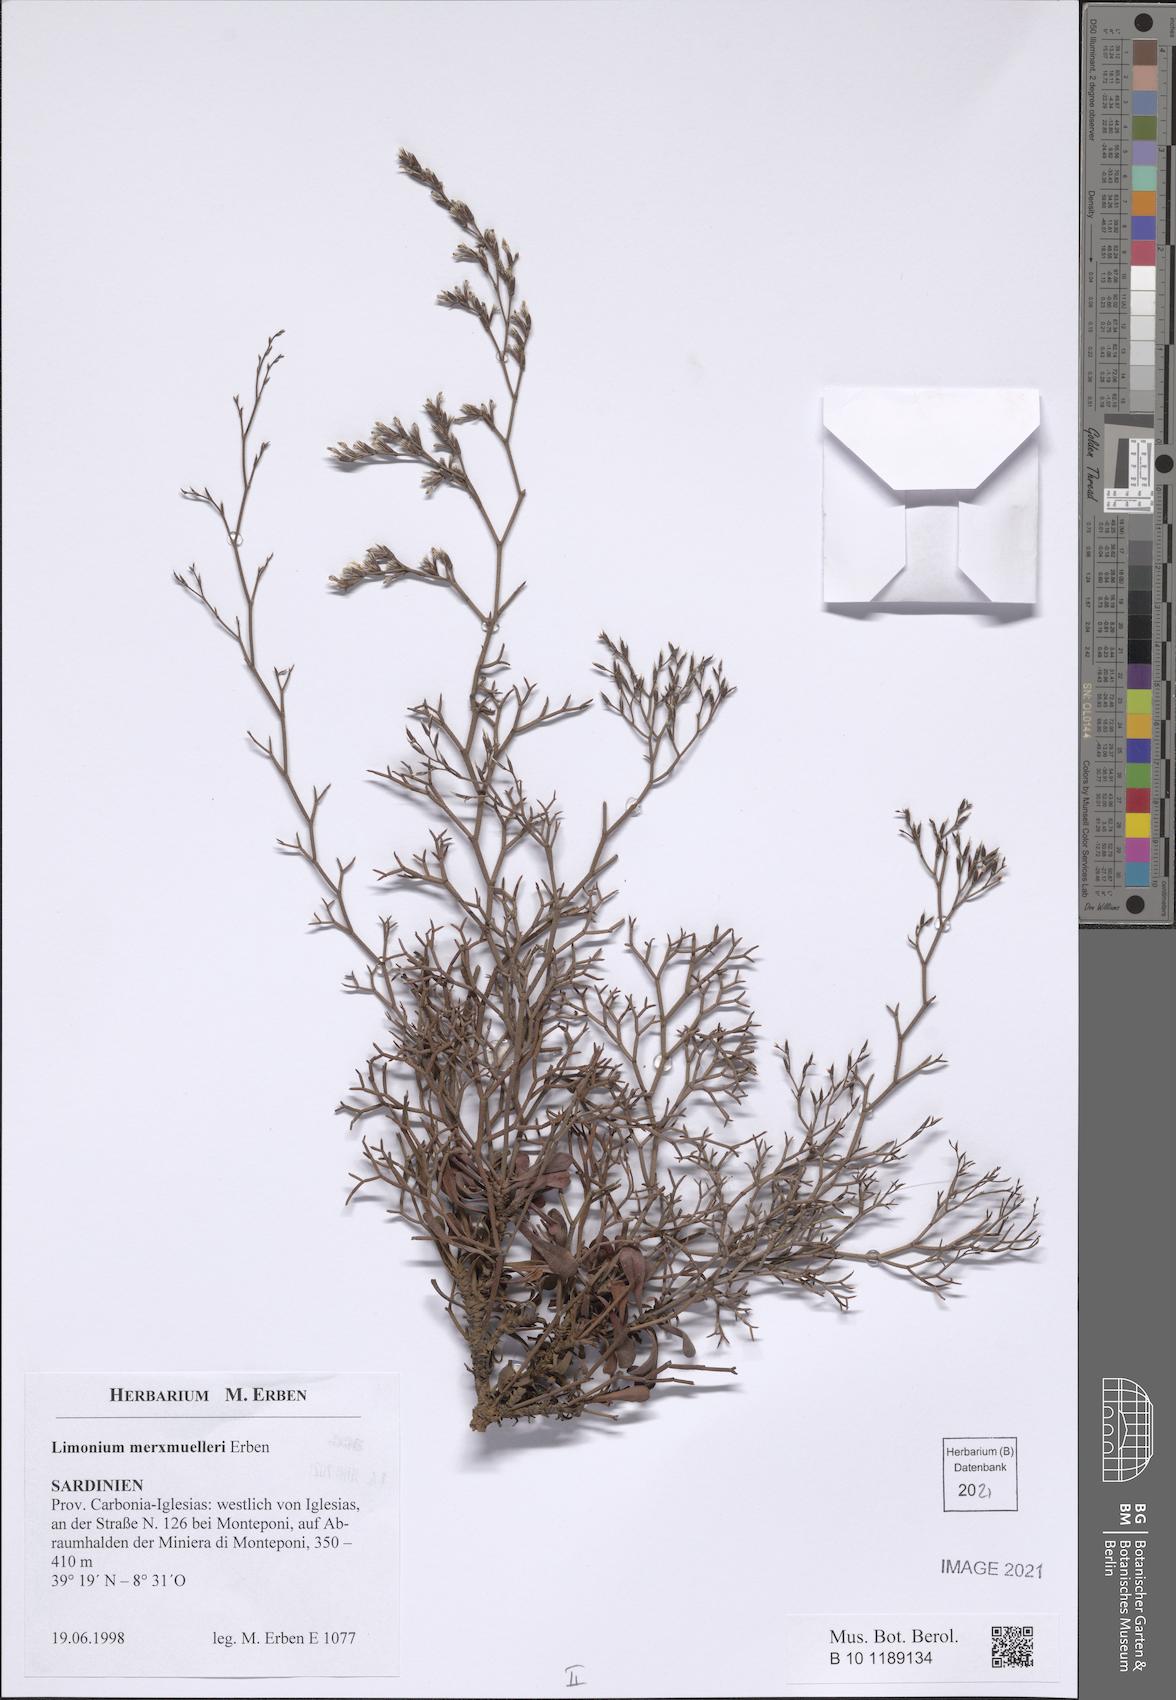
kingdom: Plantae
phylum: Tracheophyta
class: Magnoliopsida
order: Caryophyllales
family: Plumbaginaceae
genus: Limonium
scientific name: Limonium merxmuelleri
